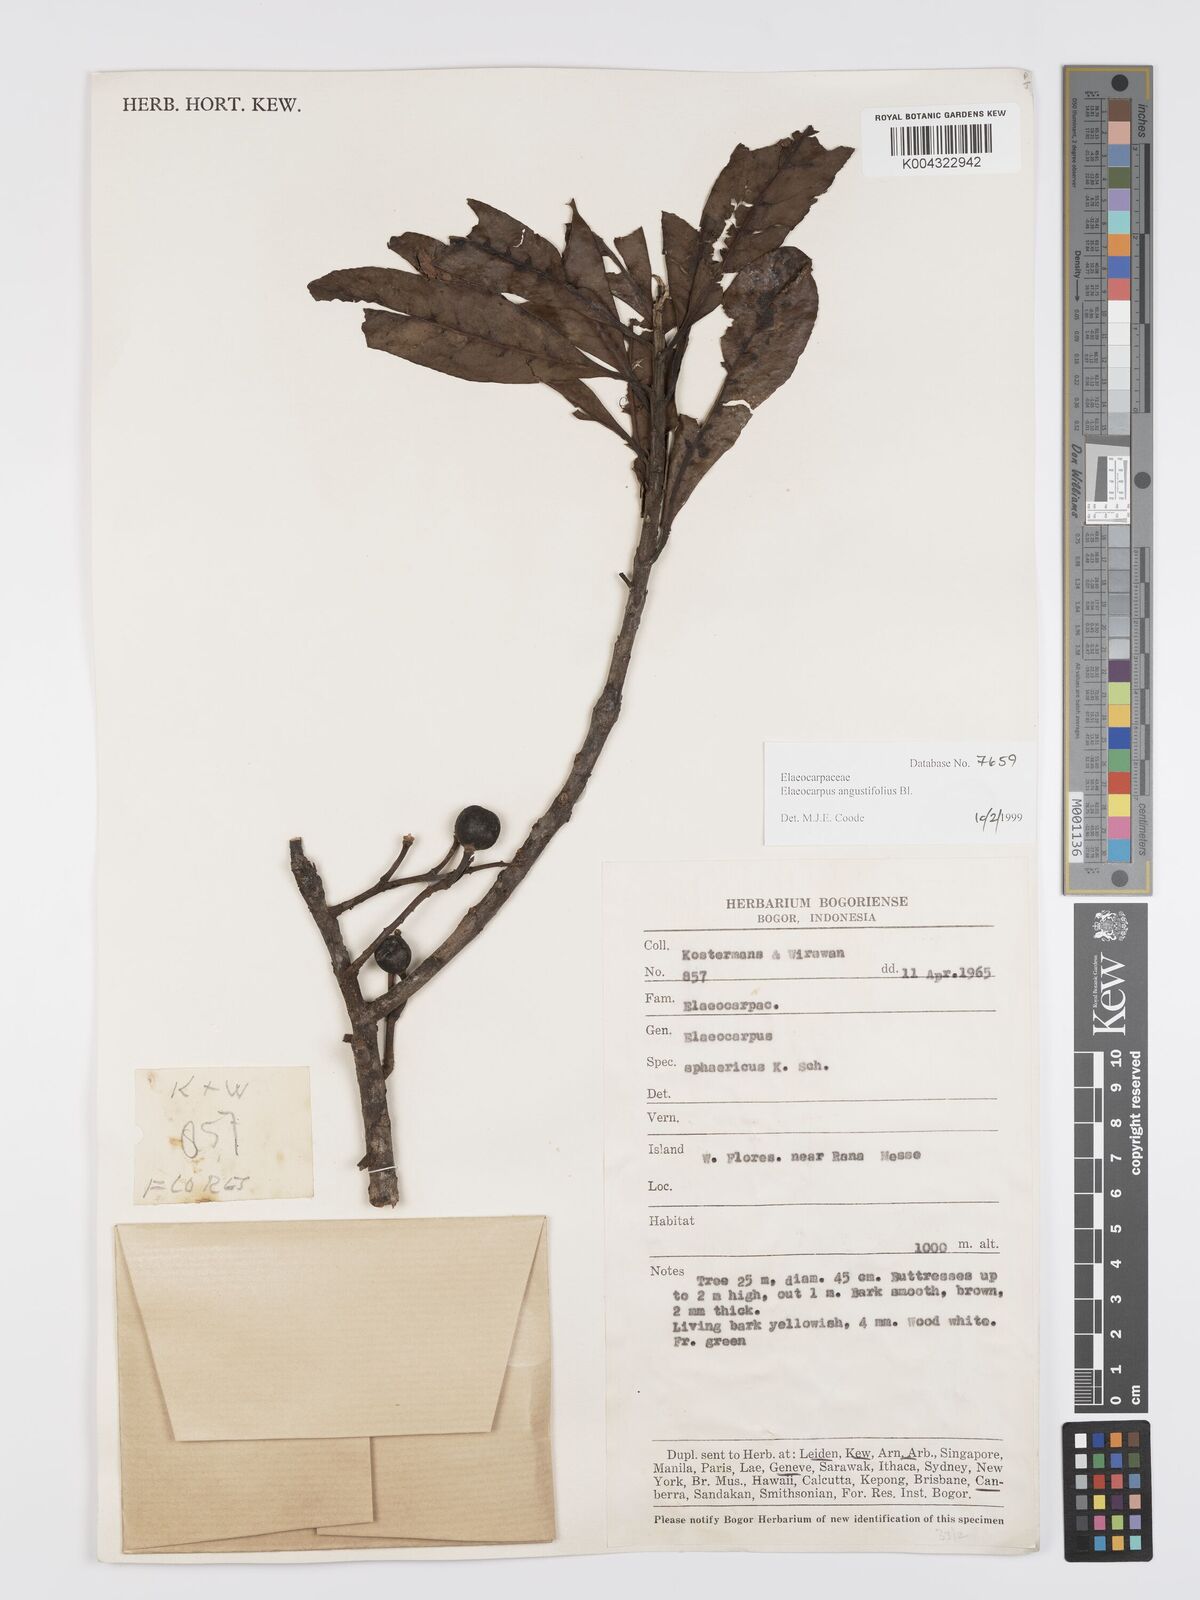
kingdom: Plantae
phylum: Tracheophyta
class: Magnoliopsida
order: Oxalidales
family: Elaeocarpaceae
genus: Elaeocarpus
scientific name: Elaeocarpus
